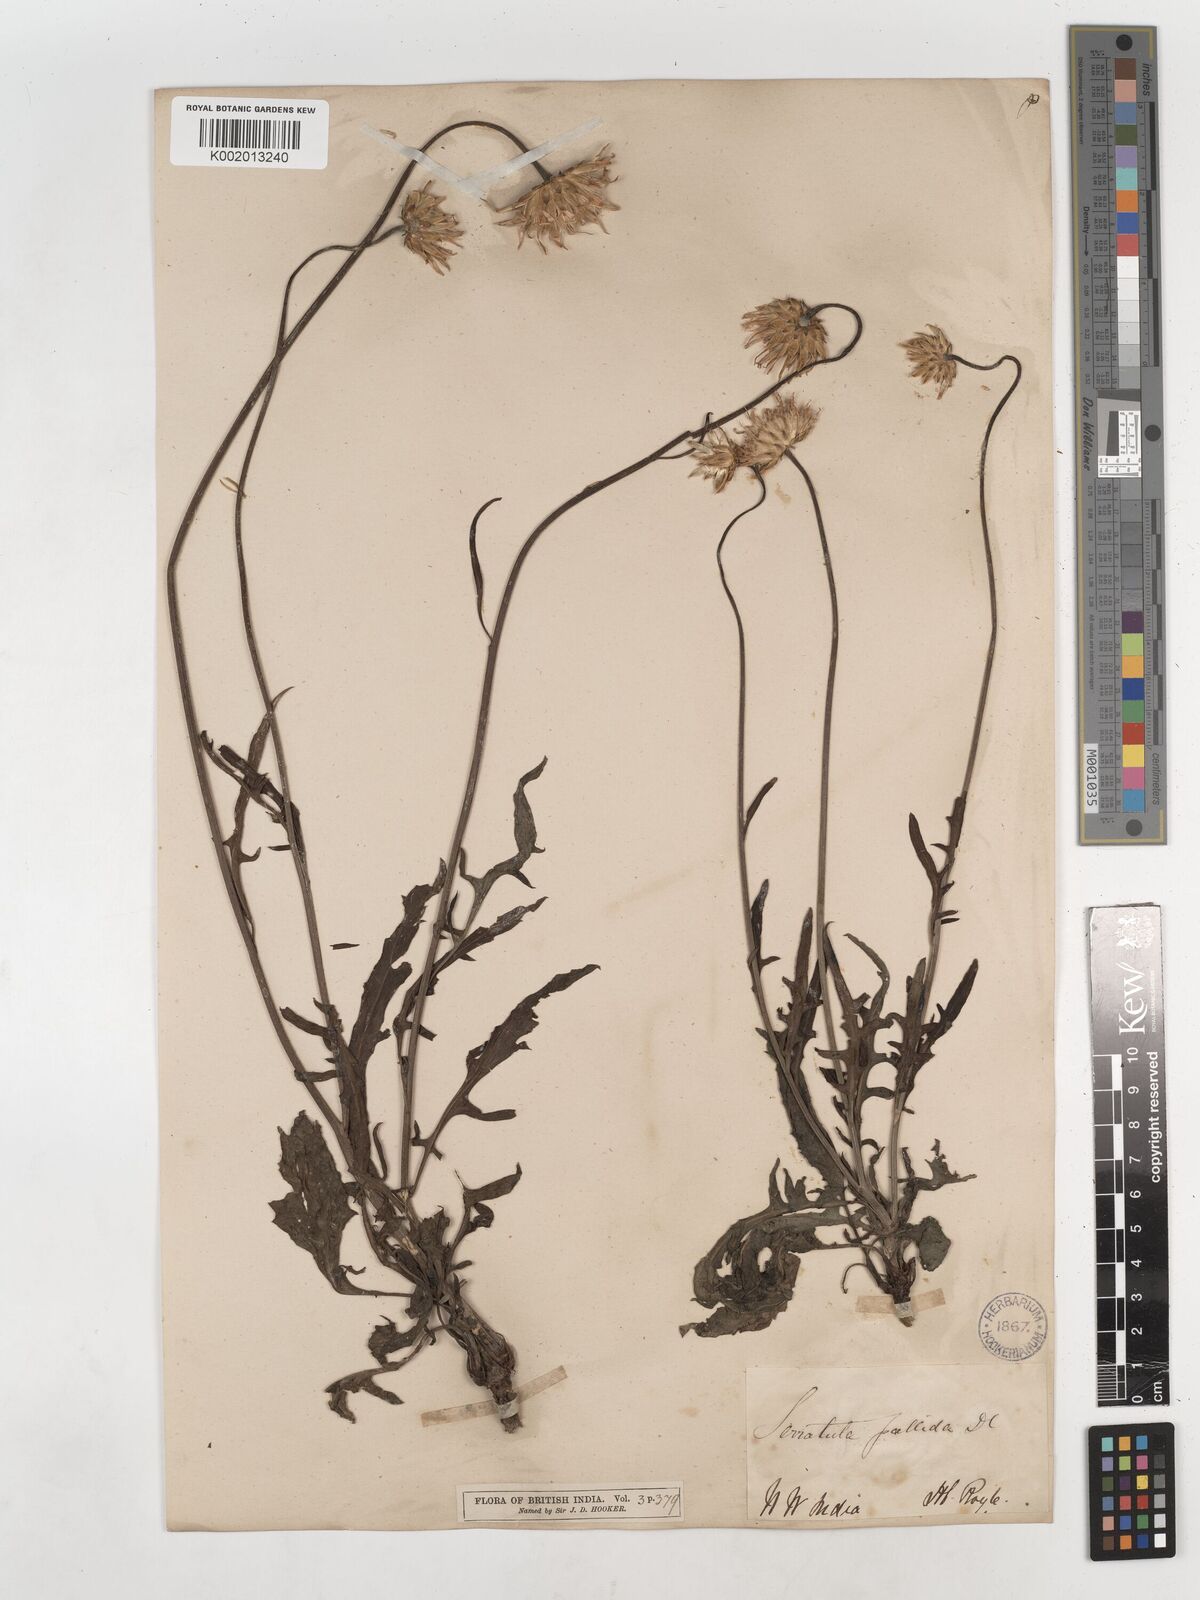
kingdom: Plantae
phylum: Tracheophyta
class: Magnoliopsida
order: Asterales
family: Asteraceae
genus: Klasea
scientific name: Klasea pallida
